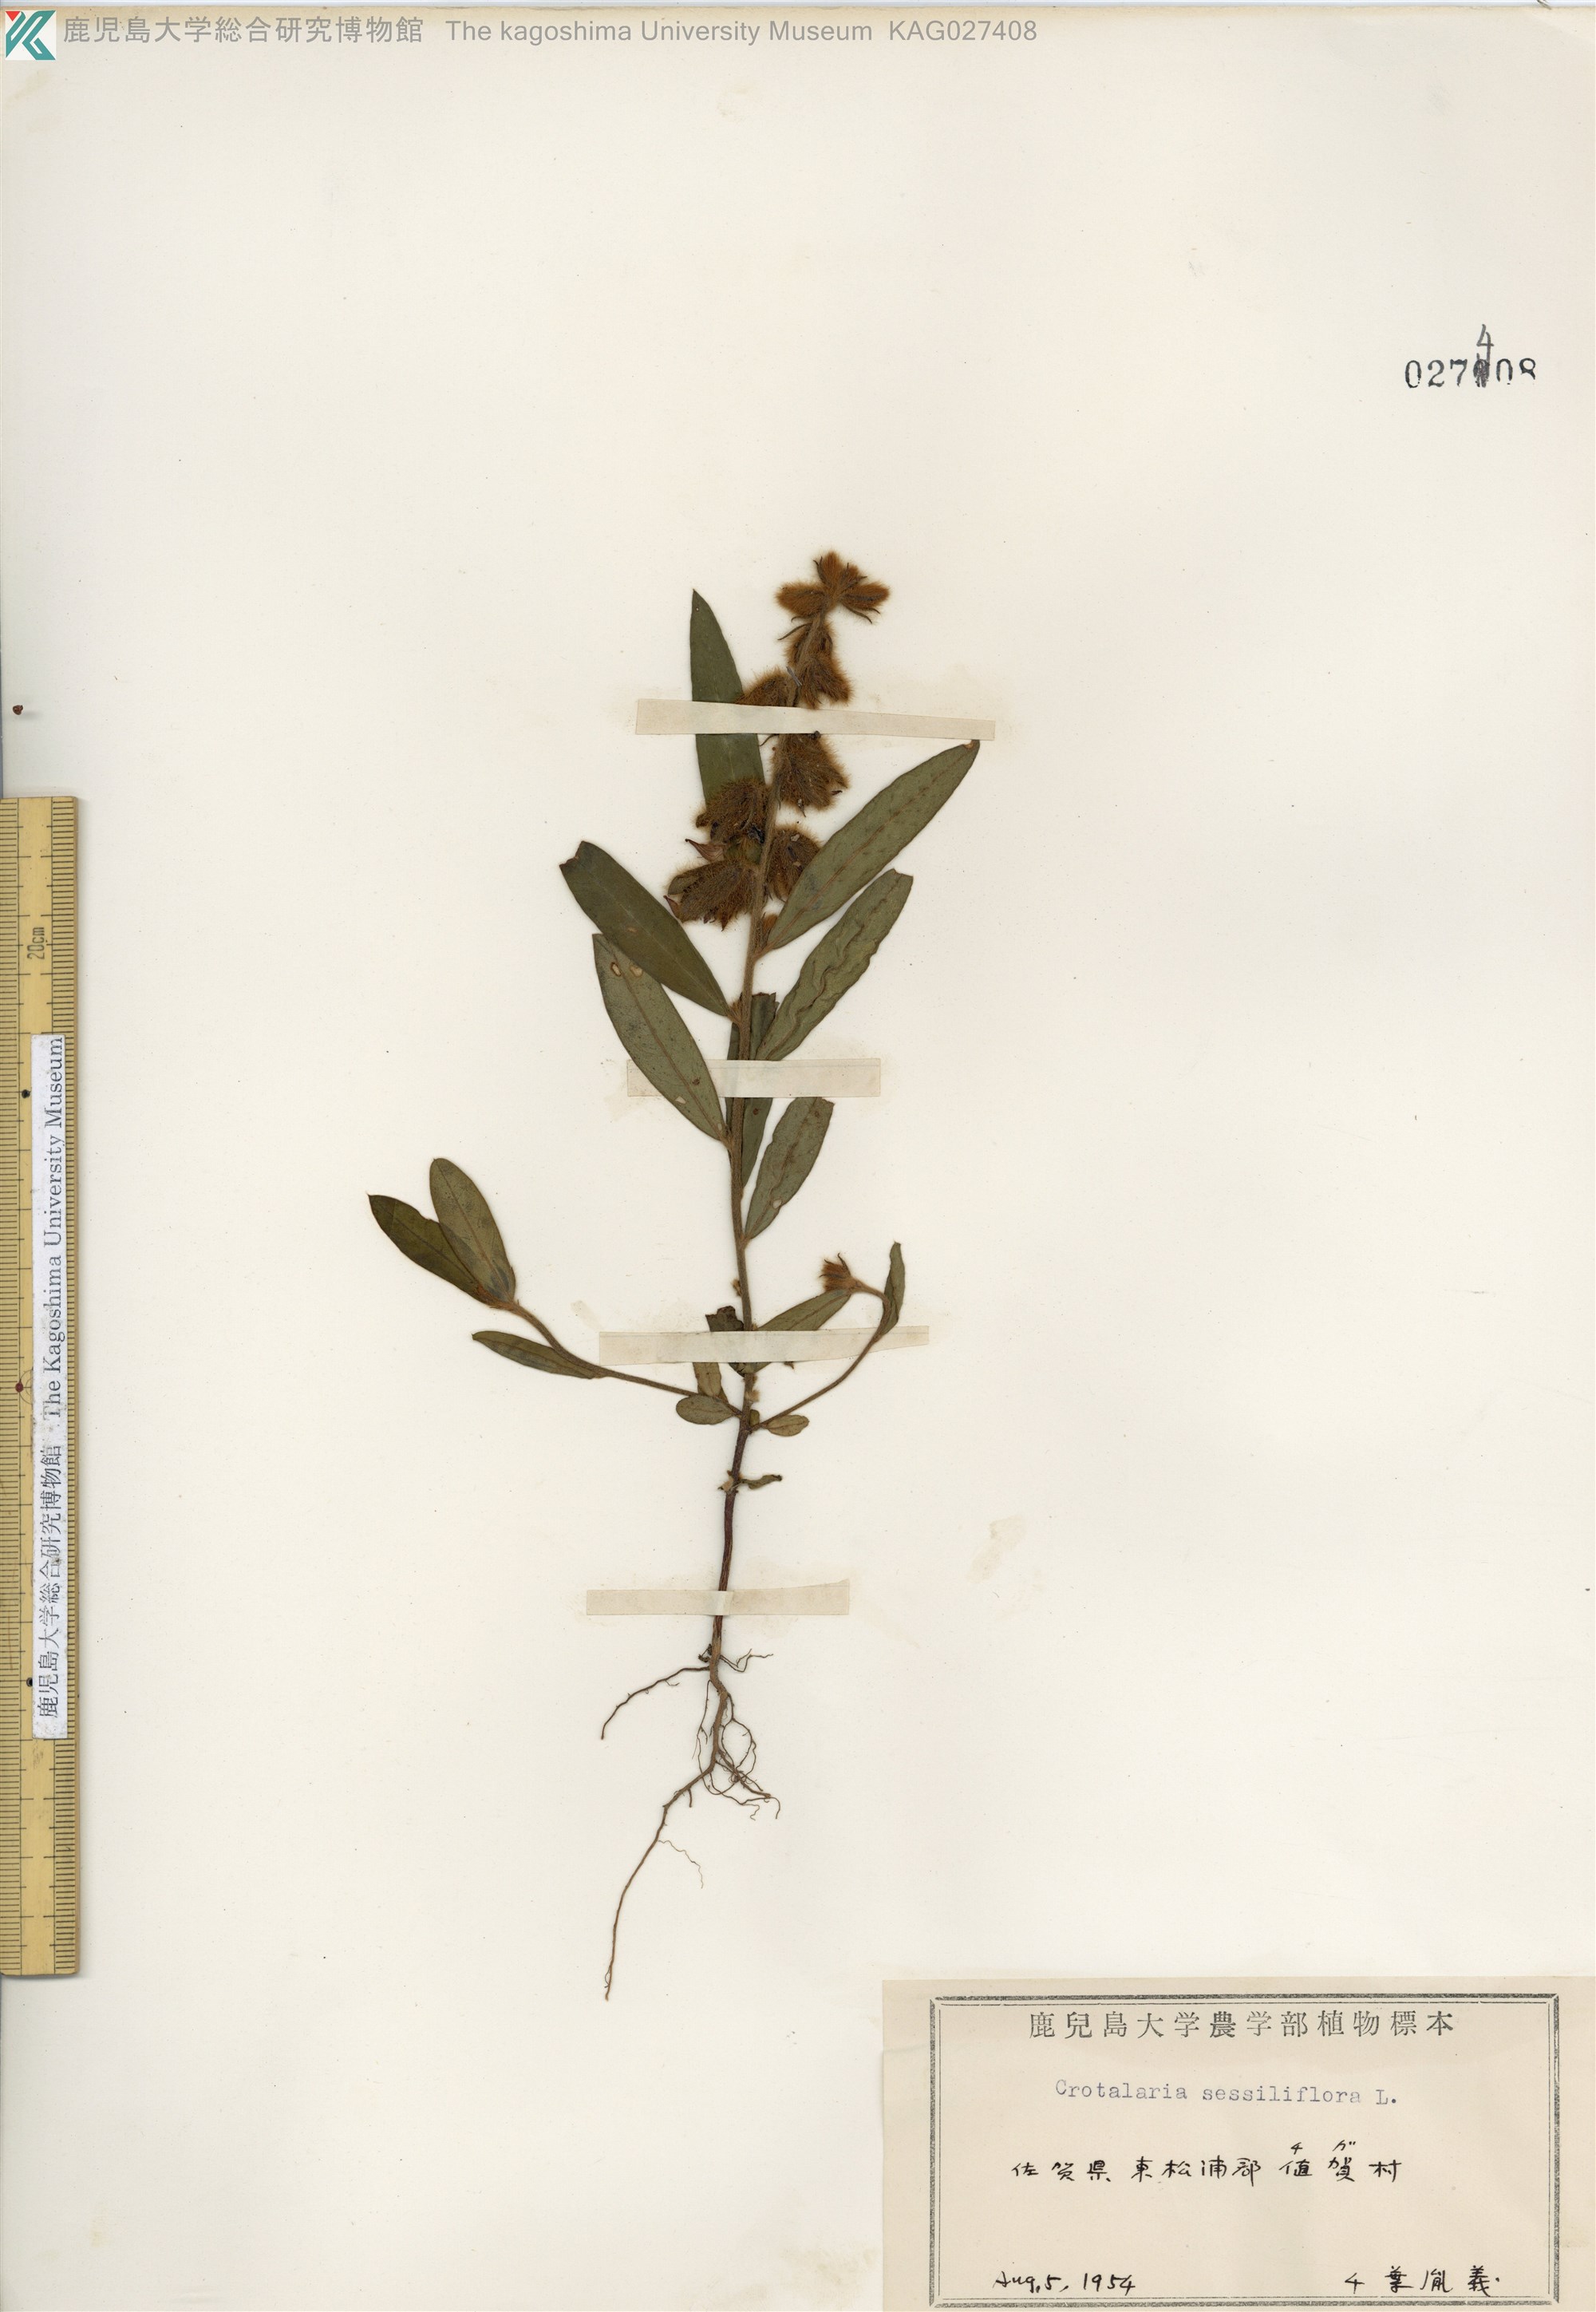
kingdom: Plantae
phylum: Tracheophyta
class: Magnoliopsida
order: Fabales
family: Fabaceae
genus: Crotalaria
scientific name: Crotalaria sessiliflora
